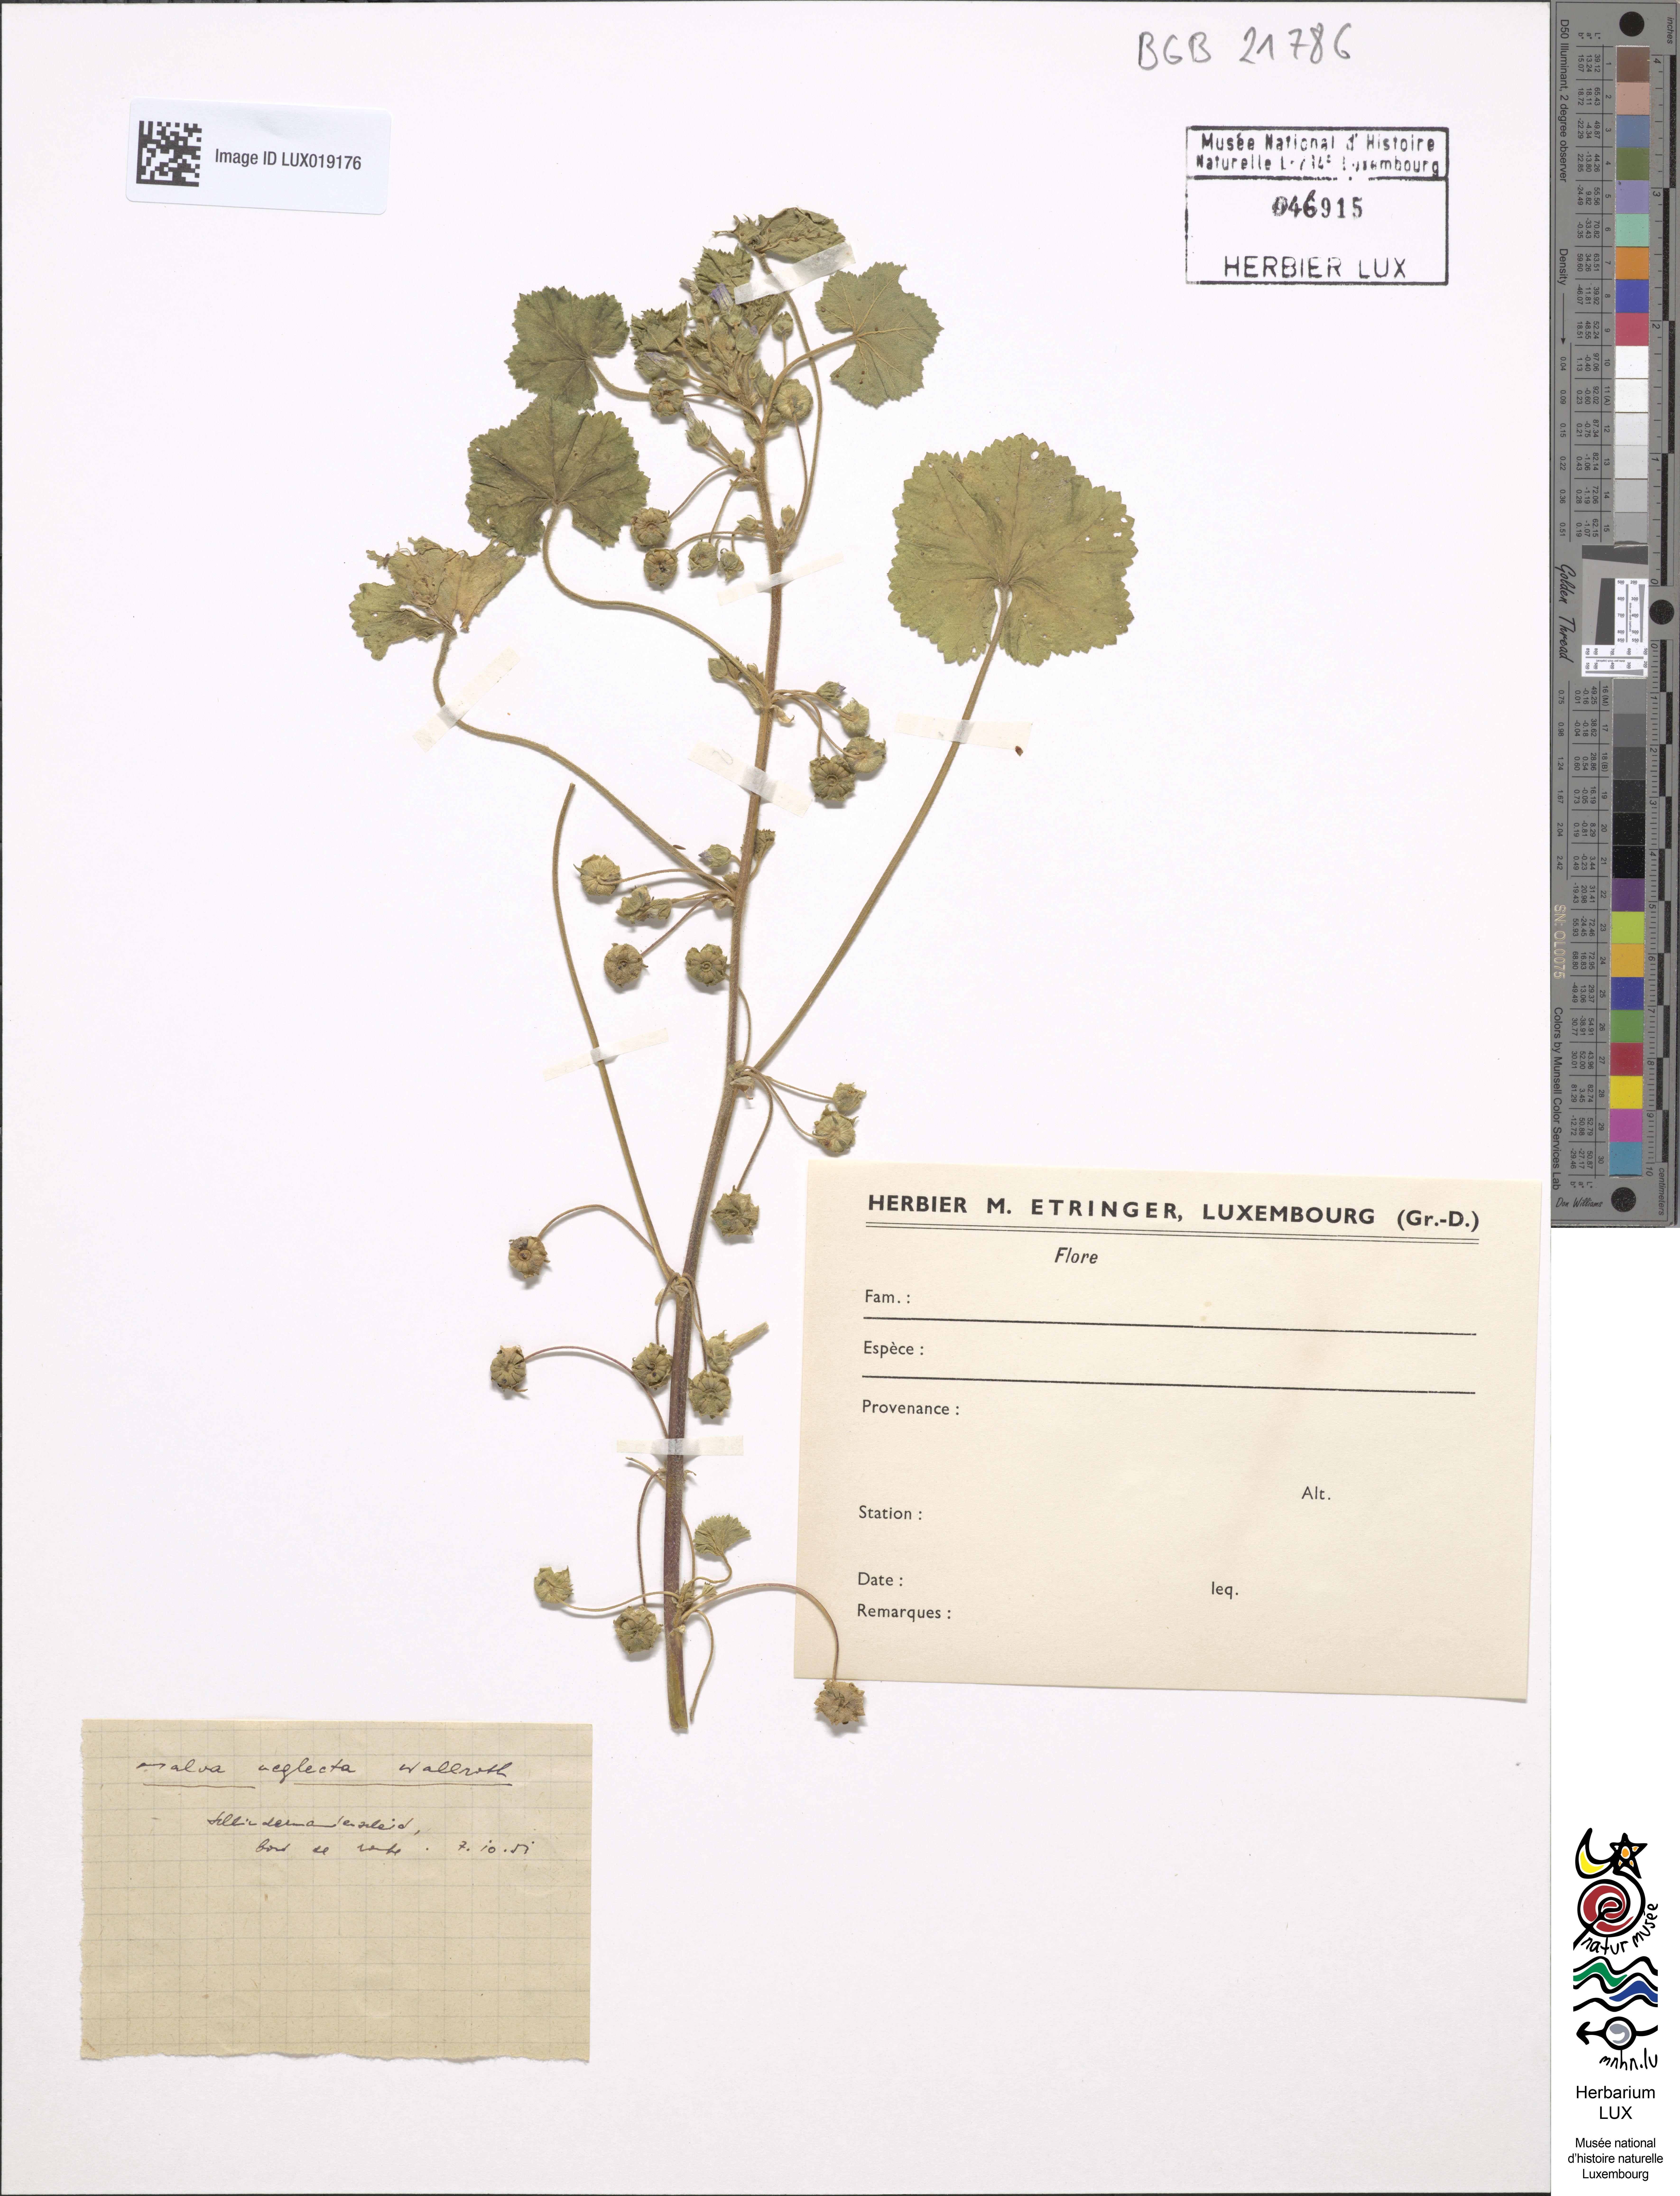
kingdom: Plantae
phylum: Tracheophyta
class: Magnoliopsida
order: Malvales
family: Malvaceae
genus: Malva
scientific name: Malva neglecta
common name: Common mallow
